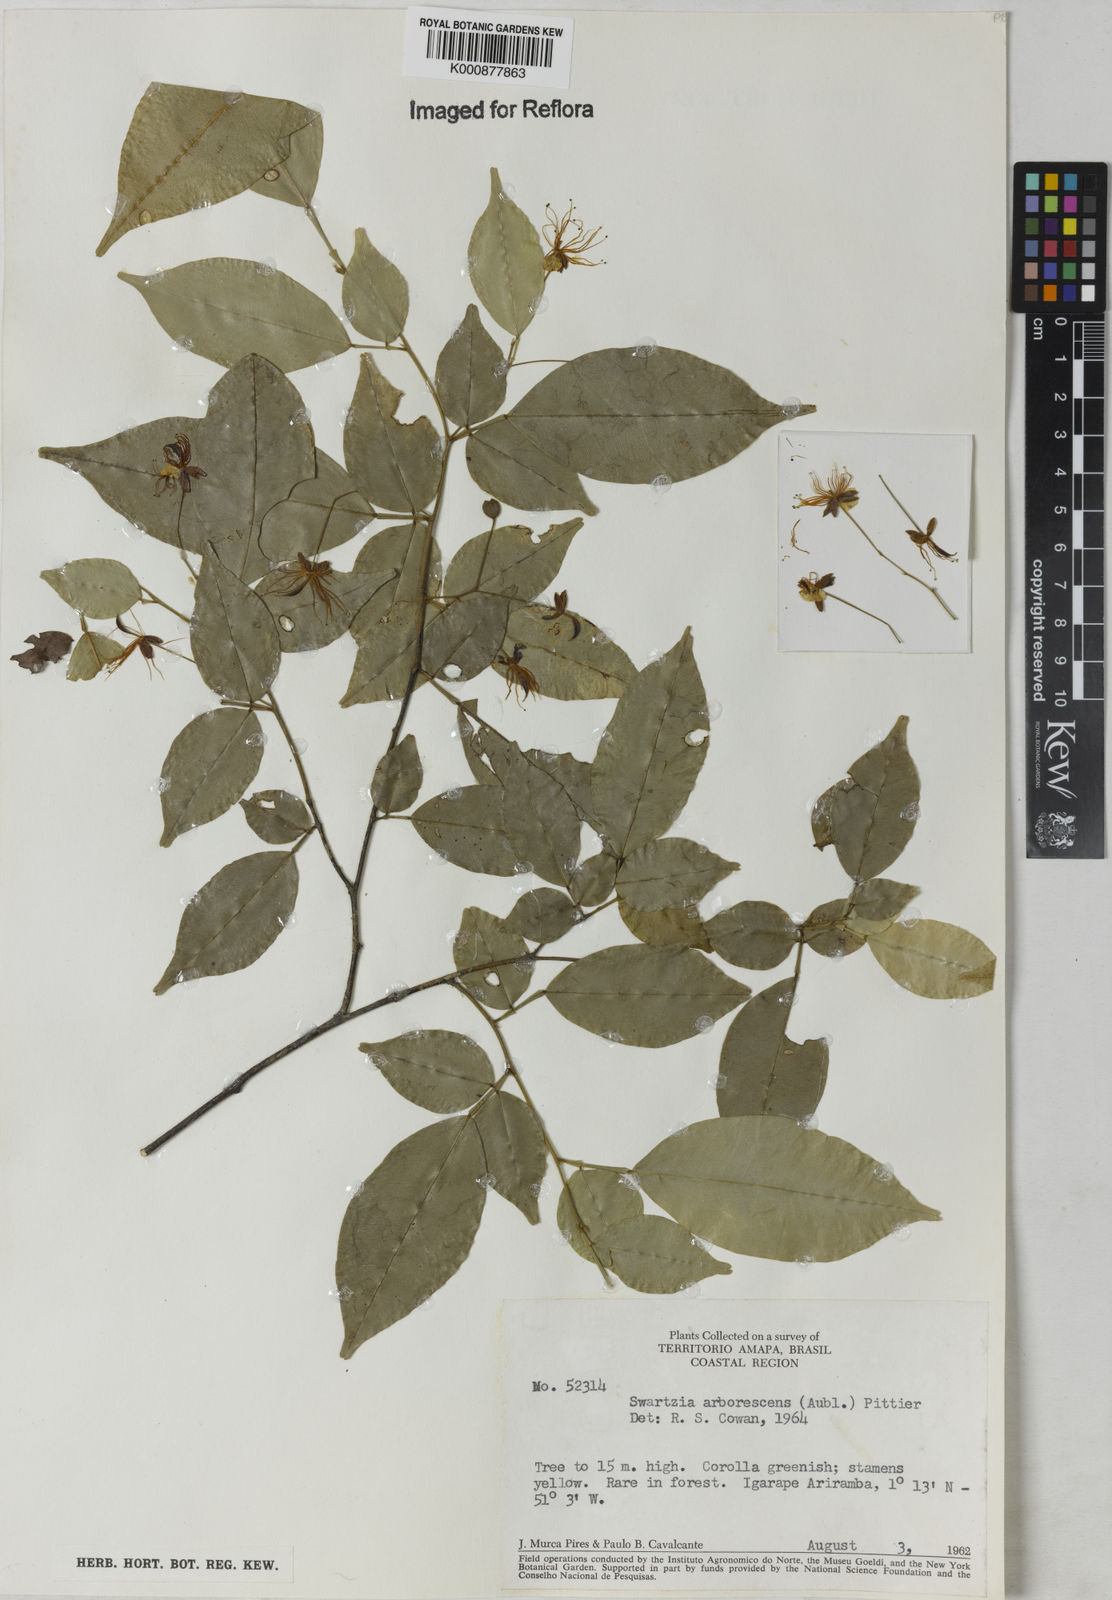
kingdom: Plantae
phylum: Tracheophyta
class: Magnoliopsida
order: Fabales
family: Fabaceae
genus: Swartzia
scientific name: Swartzia arborescens
